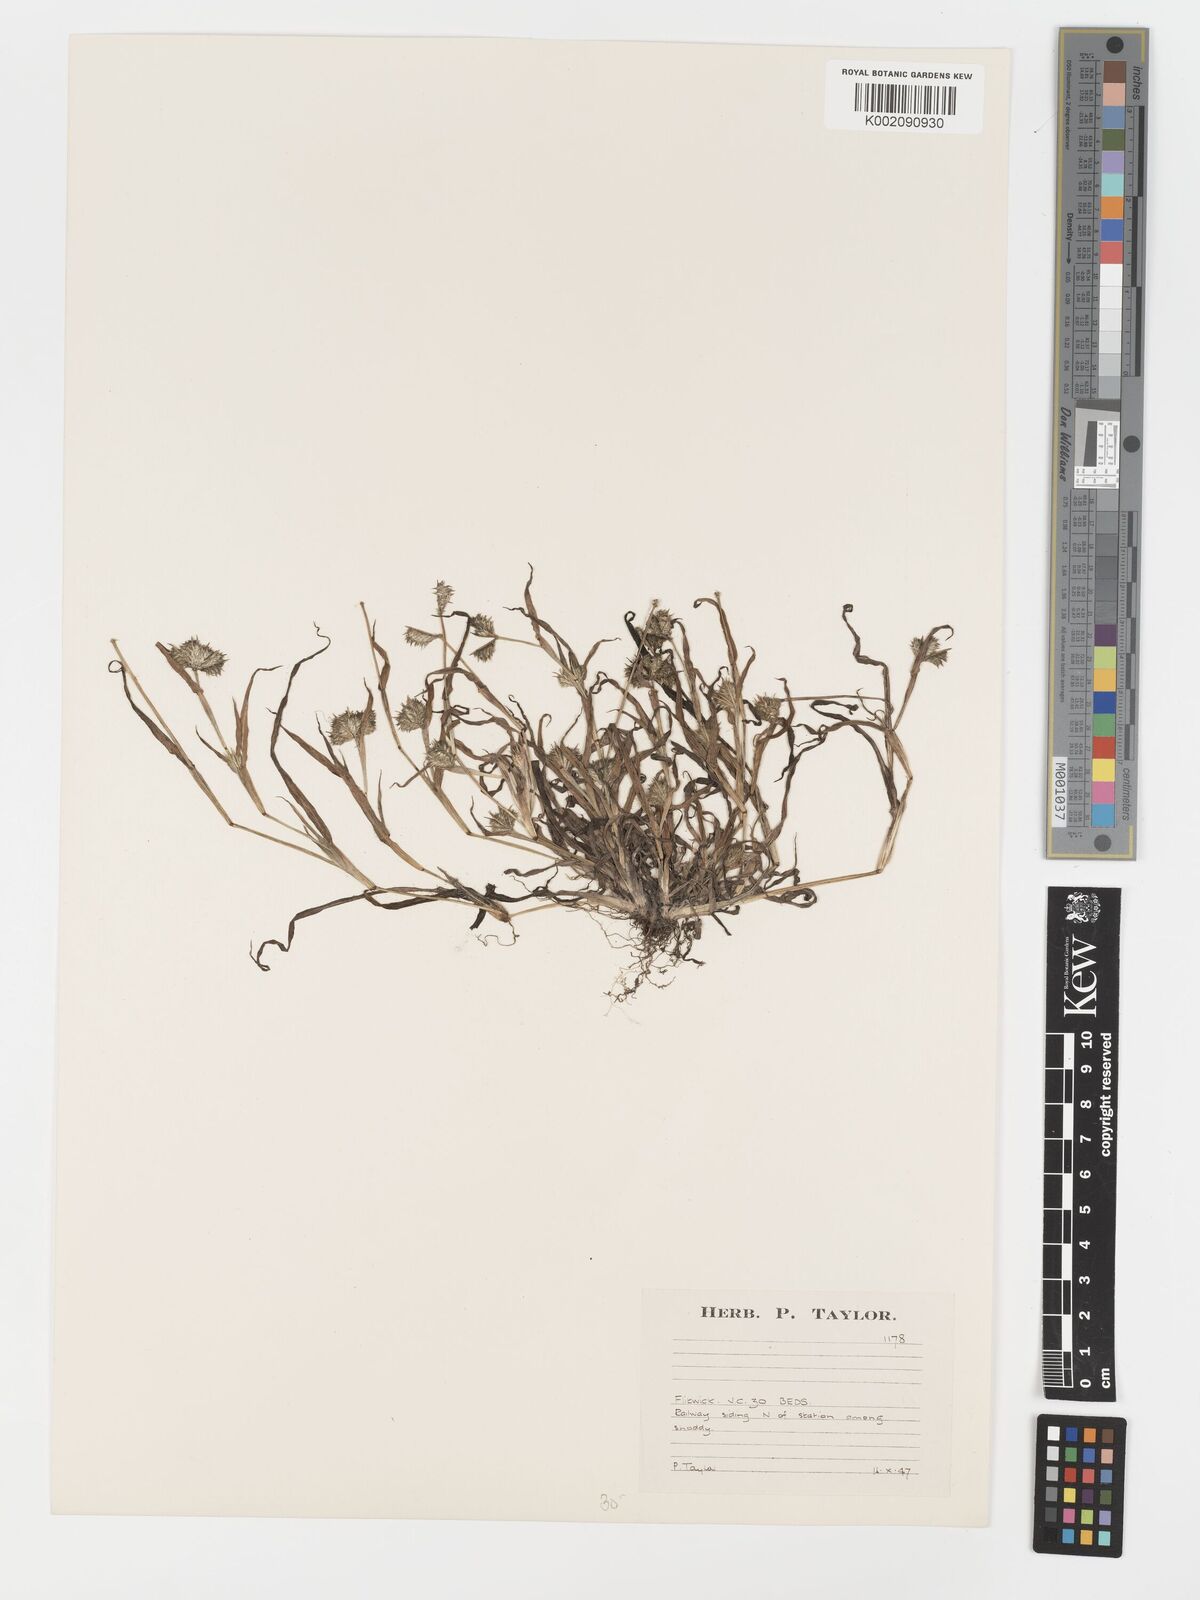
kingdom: Plantae
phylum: Tracheophyta
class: Liliopsida
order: Poales
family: Poaceae
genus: Dactyloctenium
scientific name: Dactyloctenium radulans
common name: Button-grass
